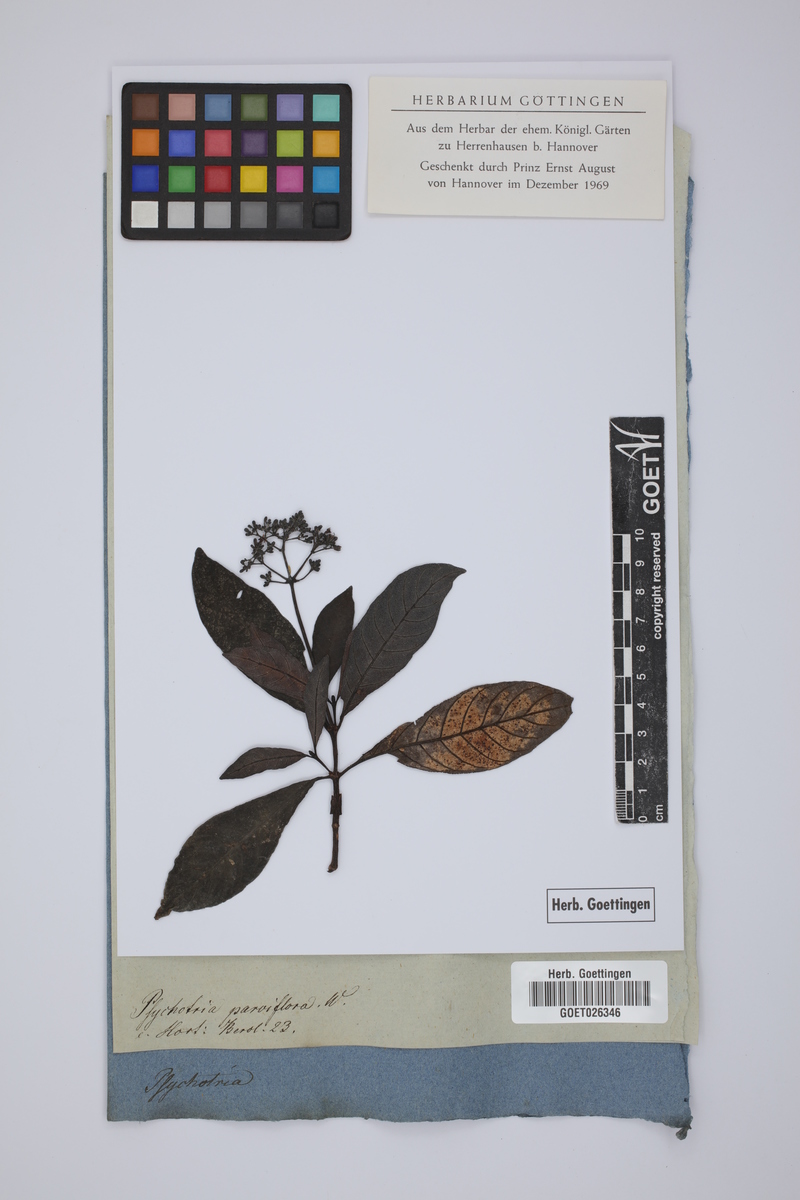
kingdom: Plantae
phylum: Tracheophyta
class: Magnoliopsida
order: Gentianales
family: Rubiaceae
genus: Simira
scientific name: Simira tinctoria
